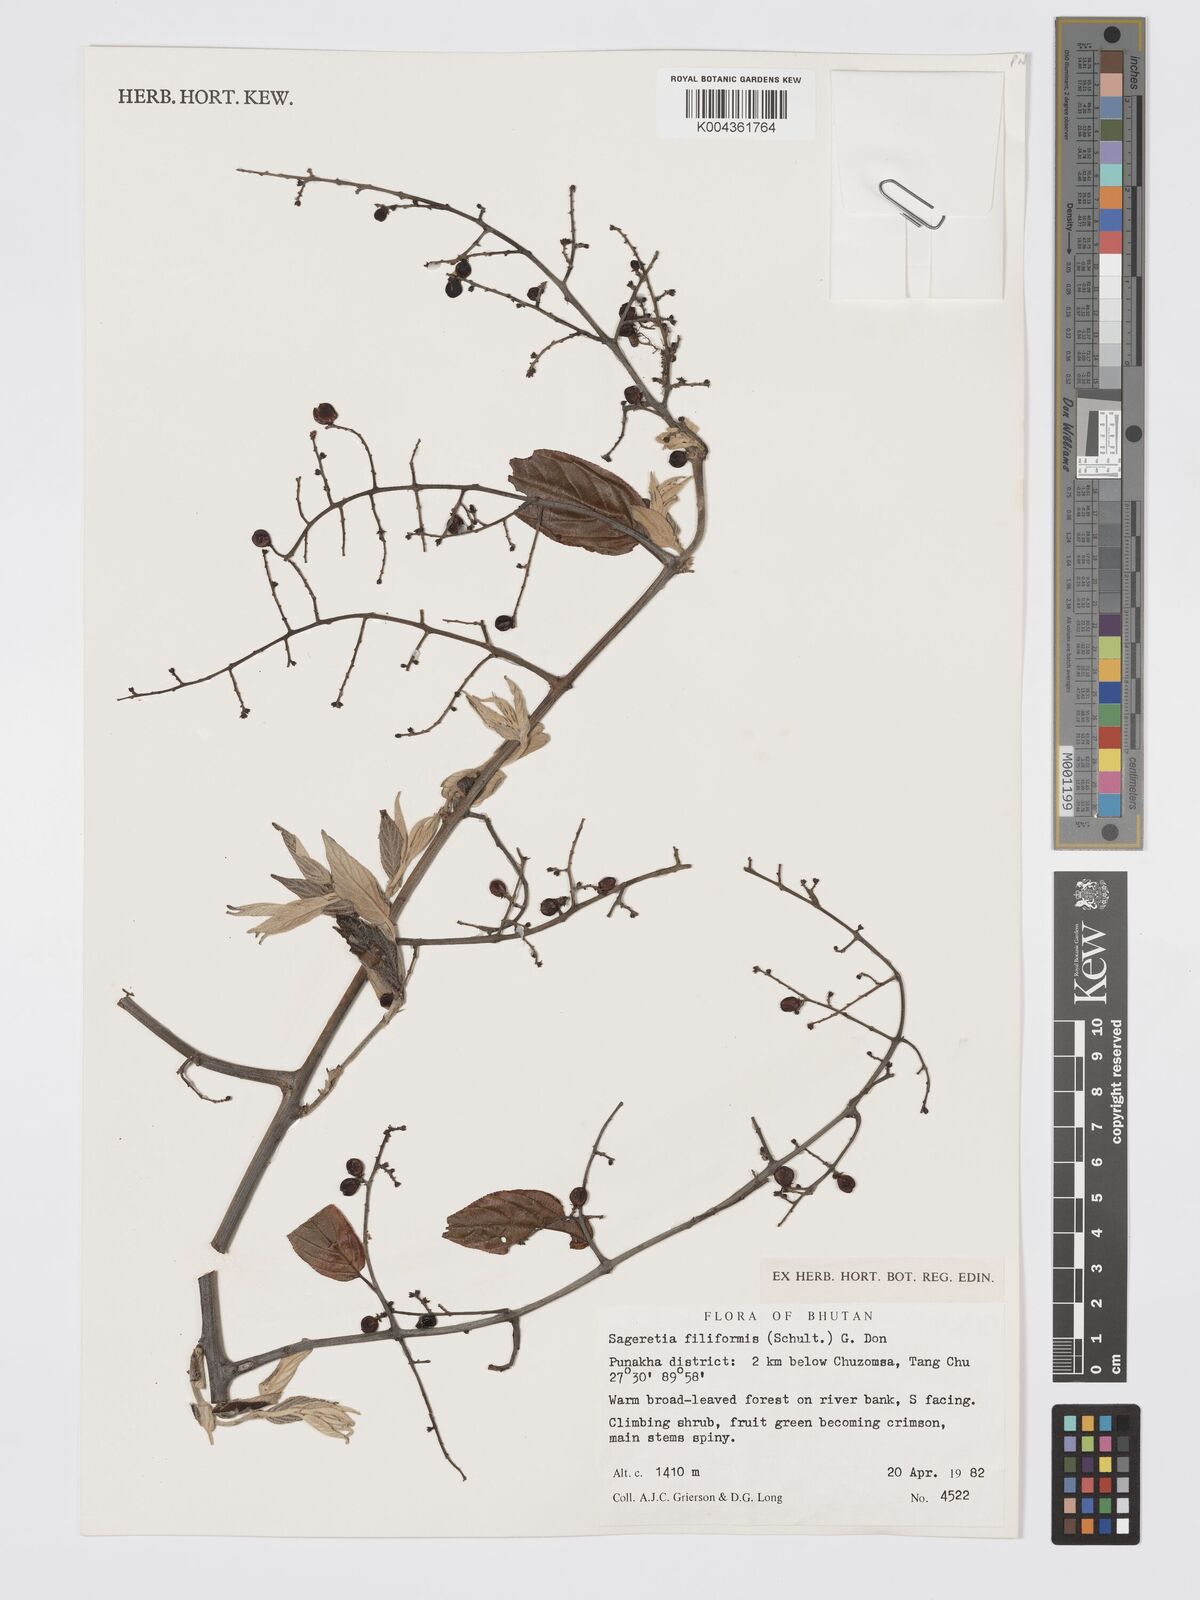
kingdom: Plantae
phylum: Tracheophyta
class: Magnoliopsida
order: Rosales
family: Rhamnaceae
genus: Sageretia
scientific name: Sageretia filiformis
